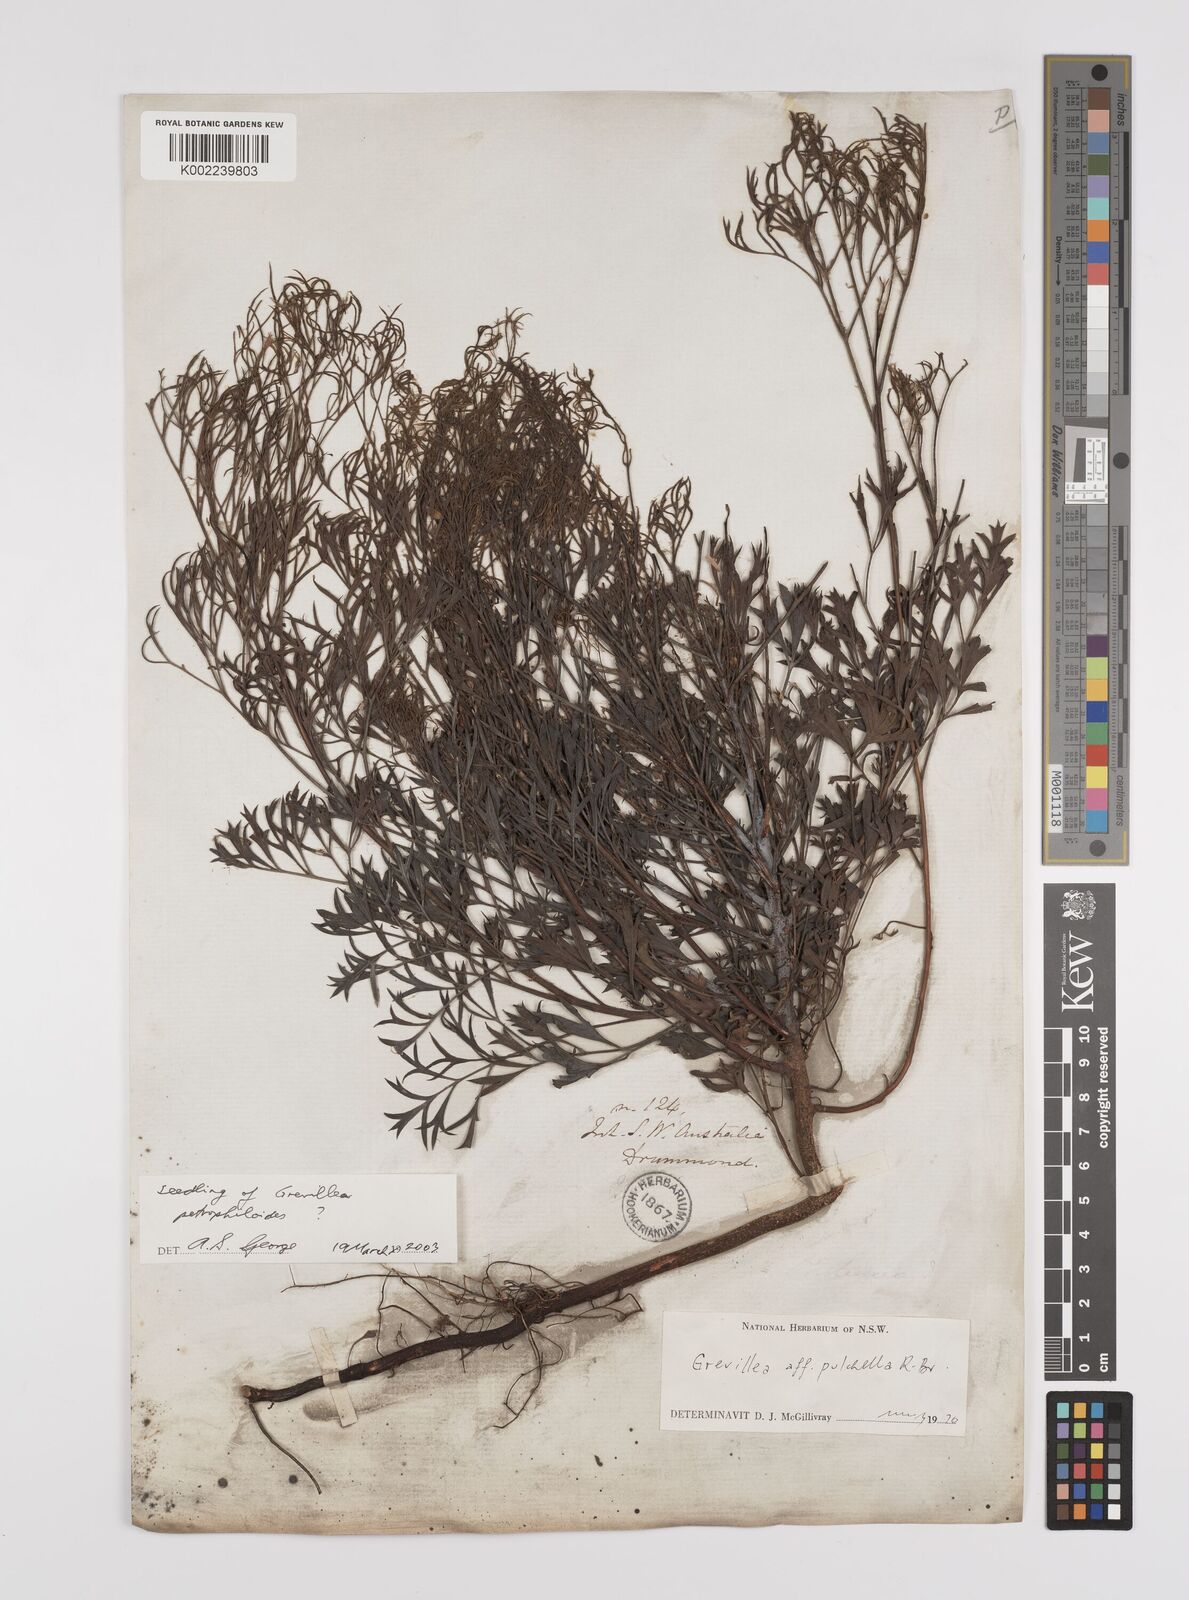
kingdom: Plantae
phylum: Tracheophyta
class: Magnoliopsida
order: Proteales
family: Proteaceae
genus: Grevillea
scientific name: Grevillea pulchella
